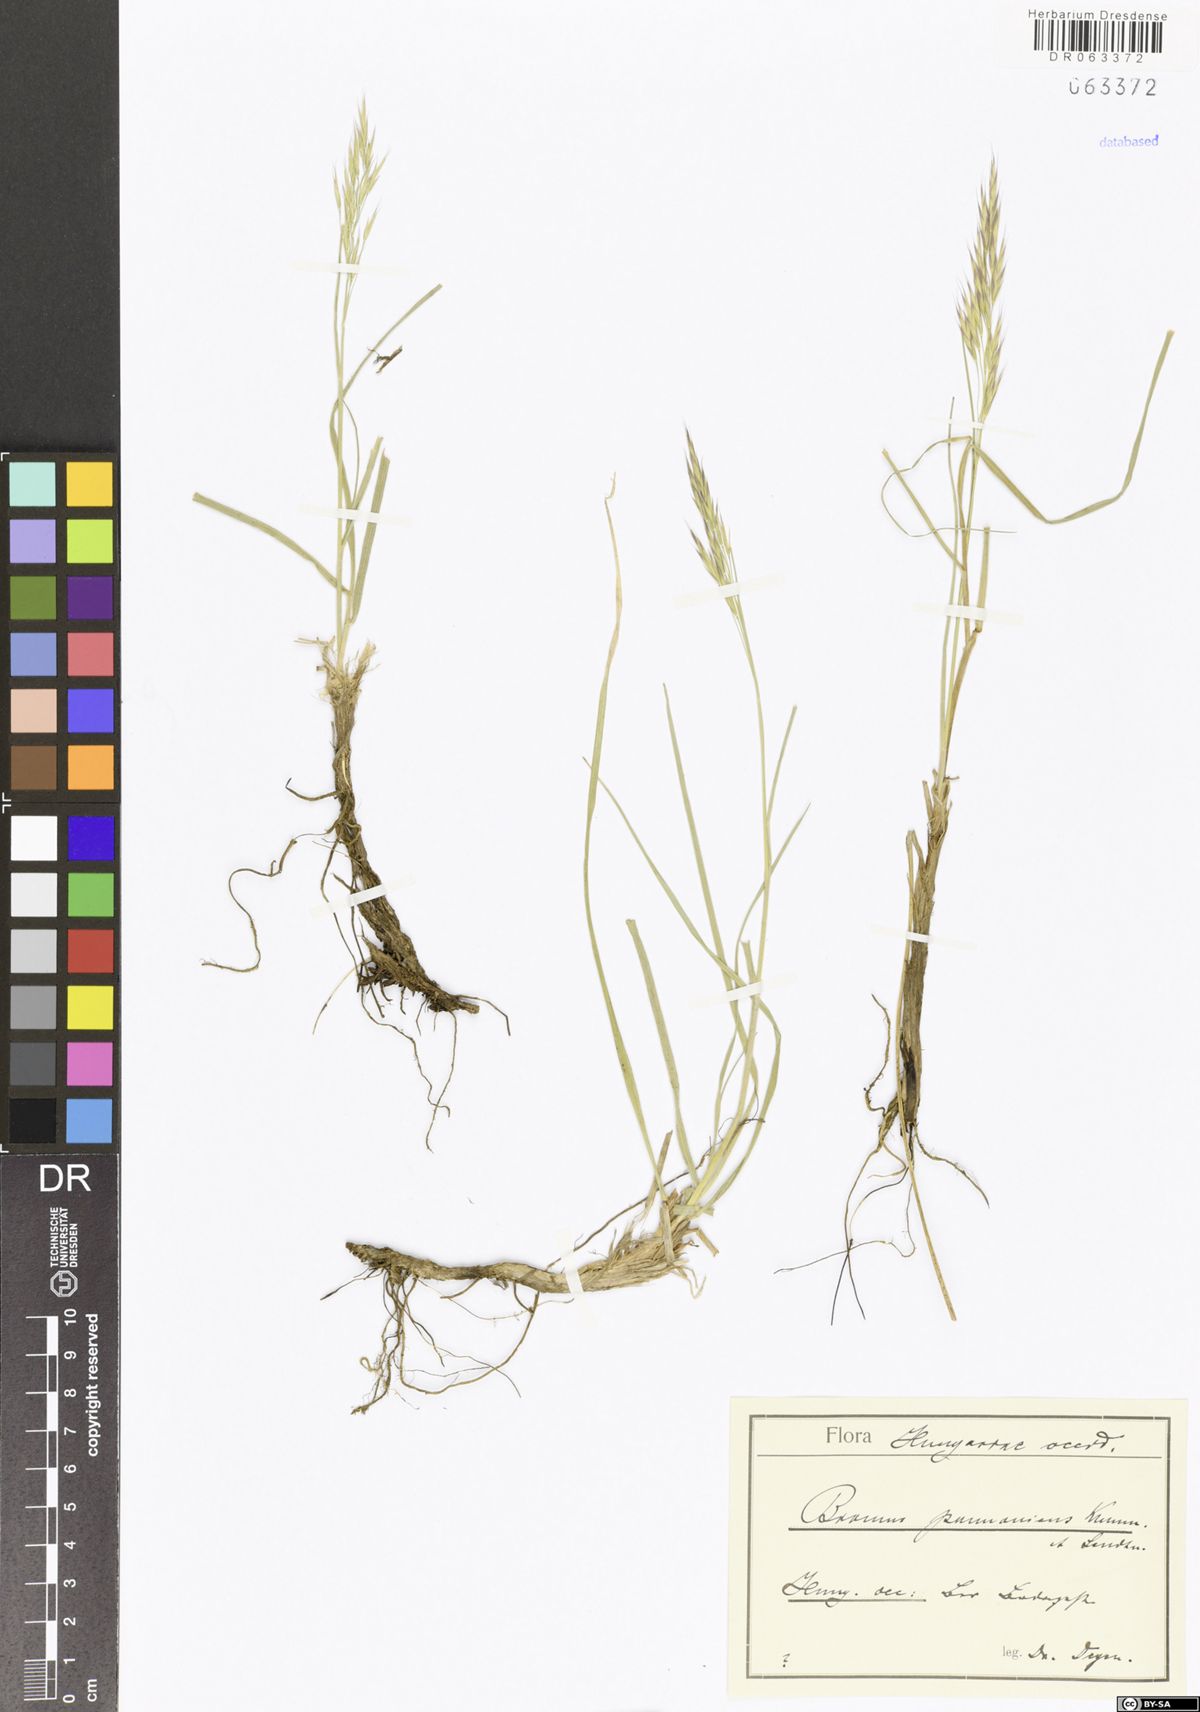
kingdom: Plantae
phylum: Tracheophyta
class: Liliopsida
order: Poales
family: Poaceae
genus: Bromus
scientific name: Bromus pannonicus
